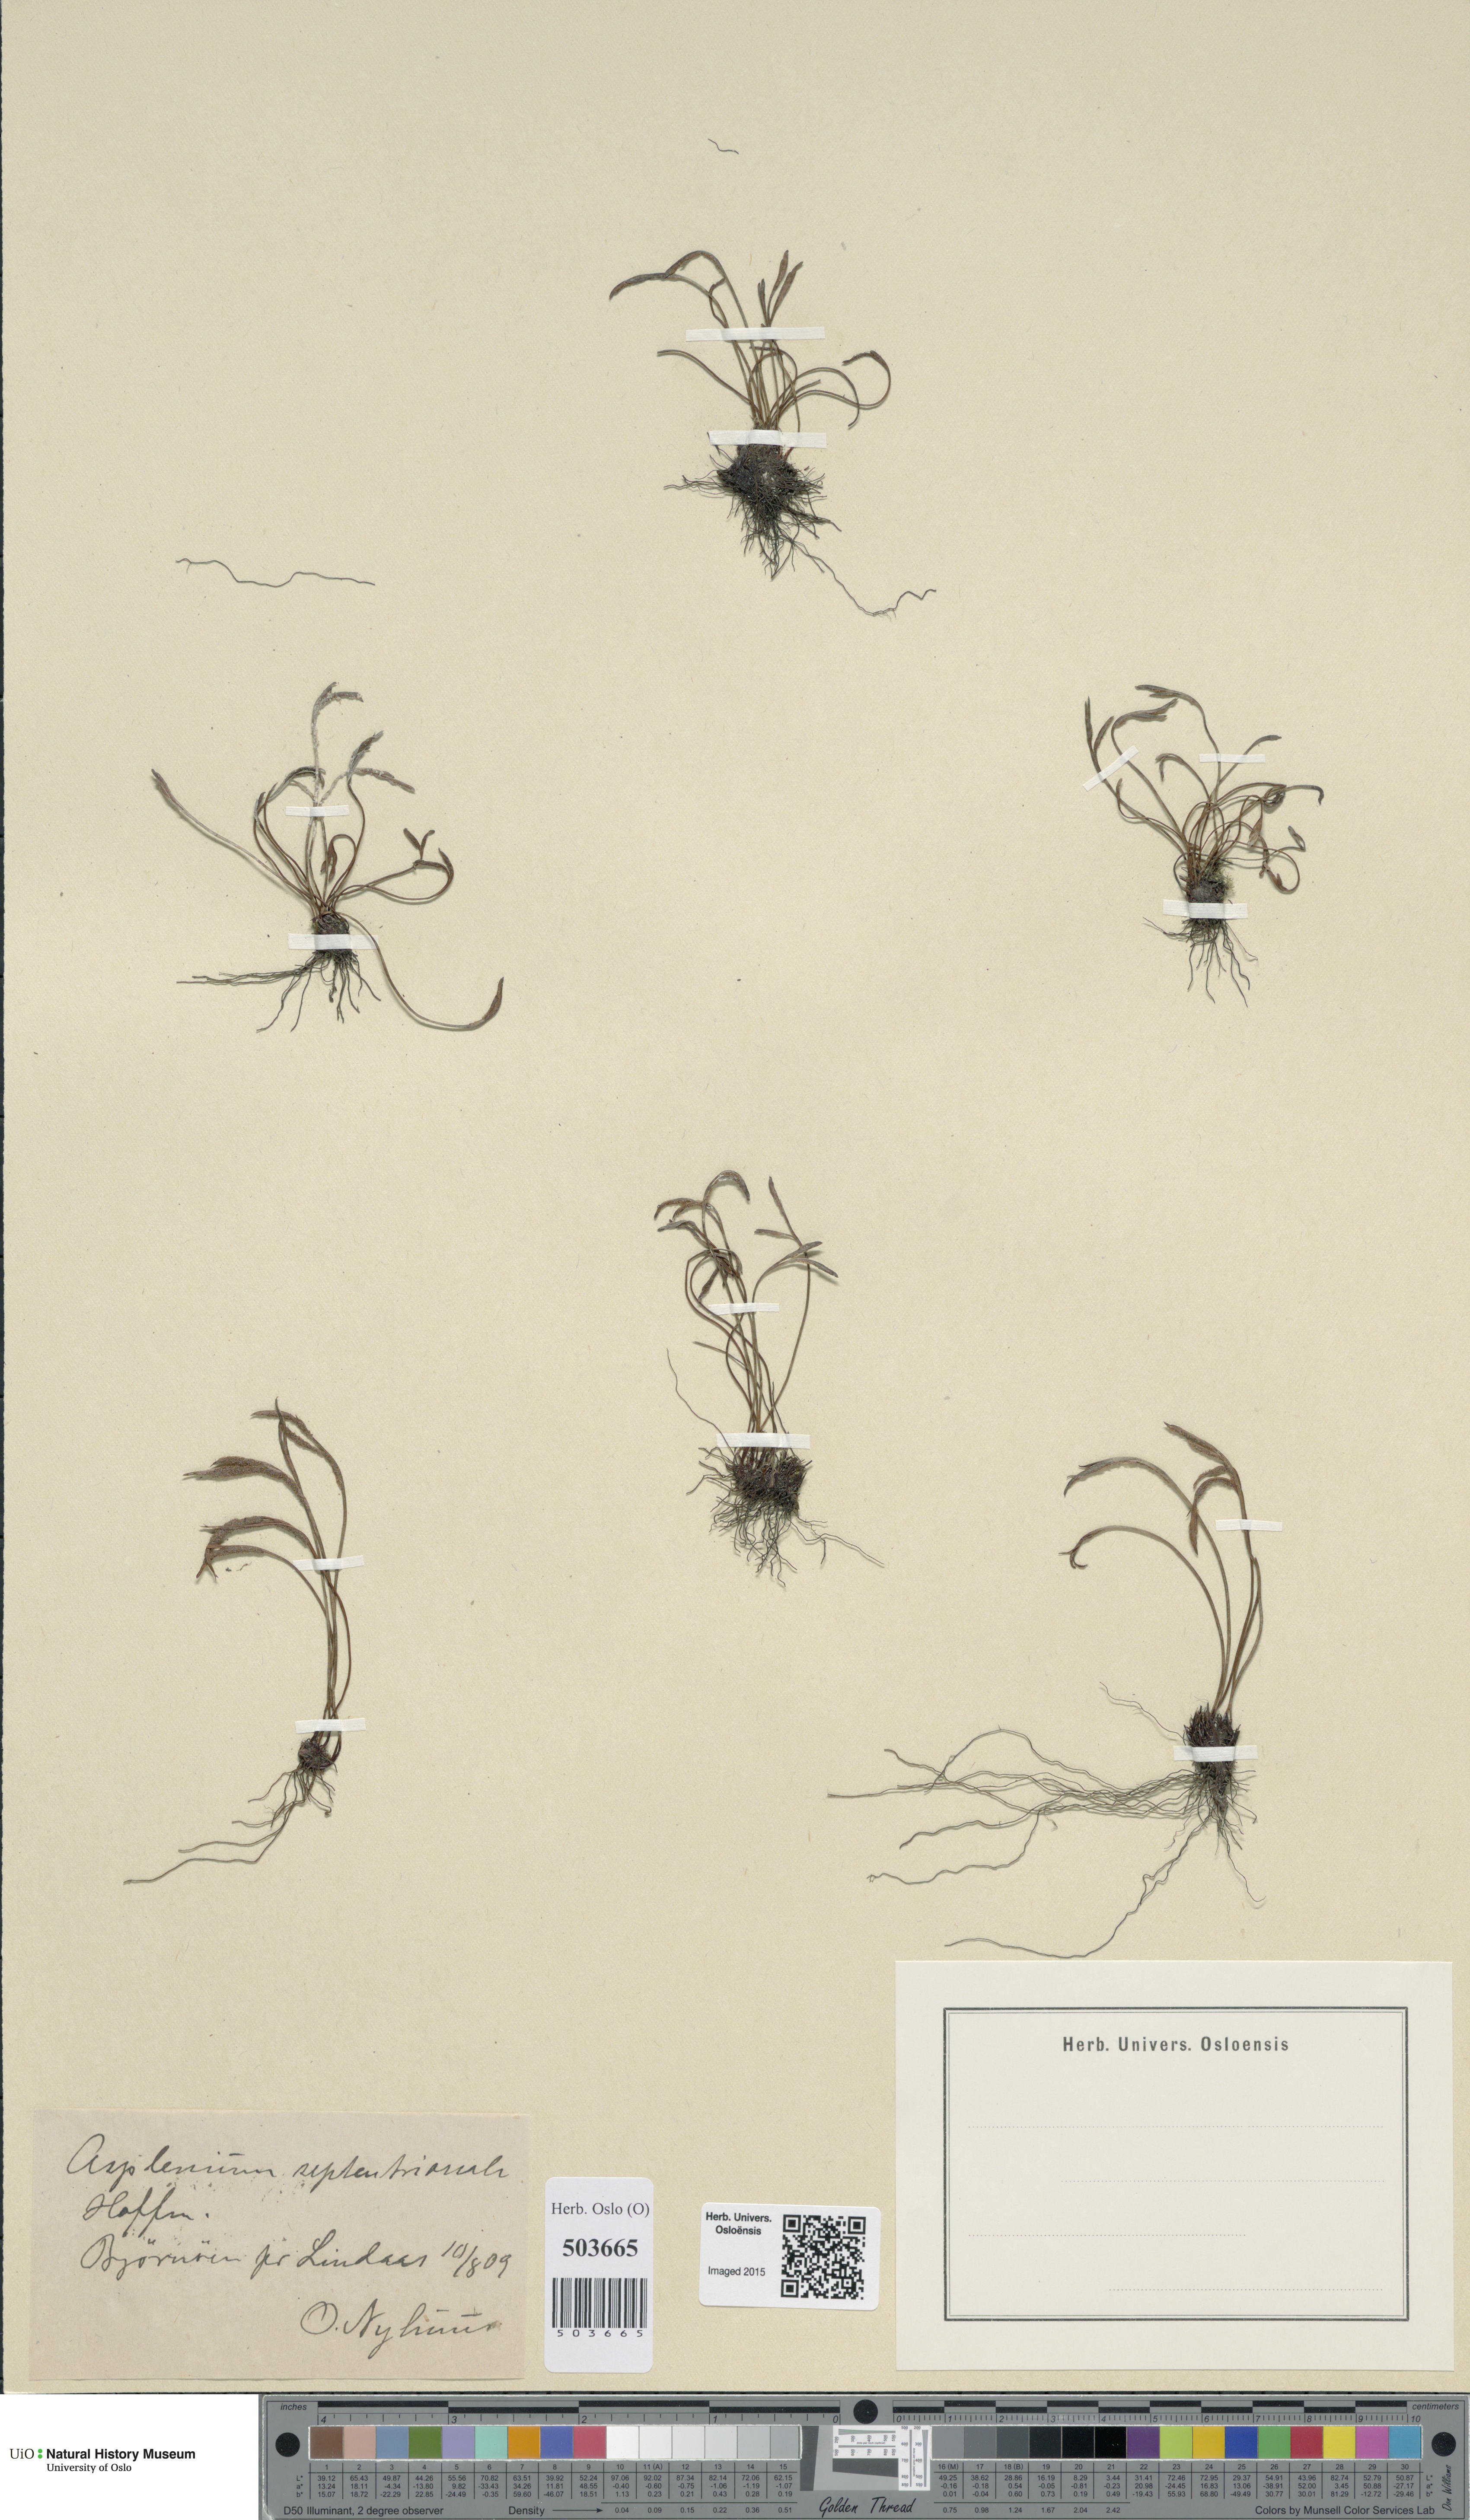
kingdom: Plantae
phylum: Tracheophyta
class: Polypodiopsida
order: Polypodiales
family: Aspleniaceae
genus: Asplenium
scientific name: Asplenium septentrionale
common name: Forked spleenwort
